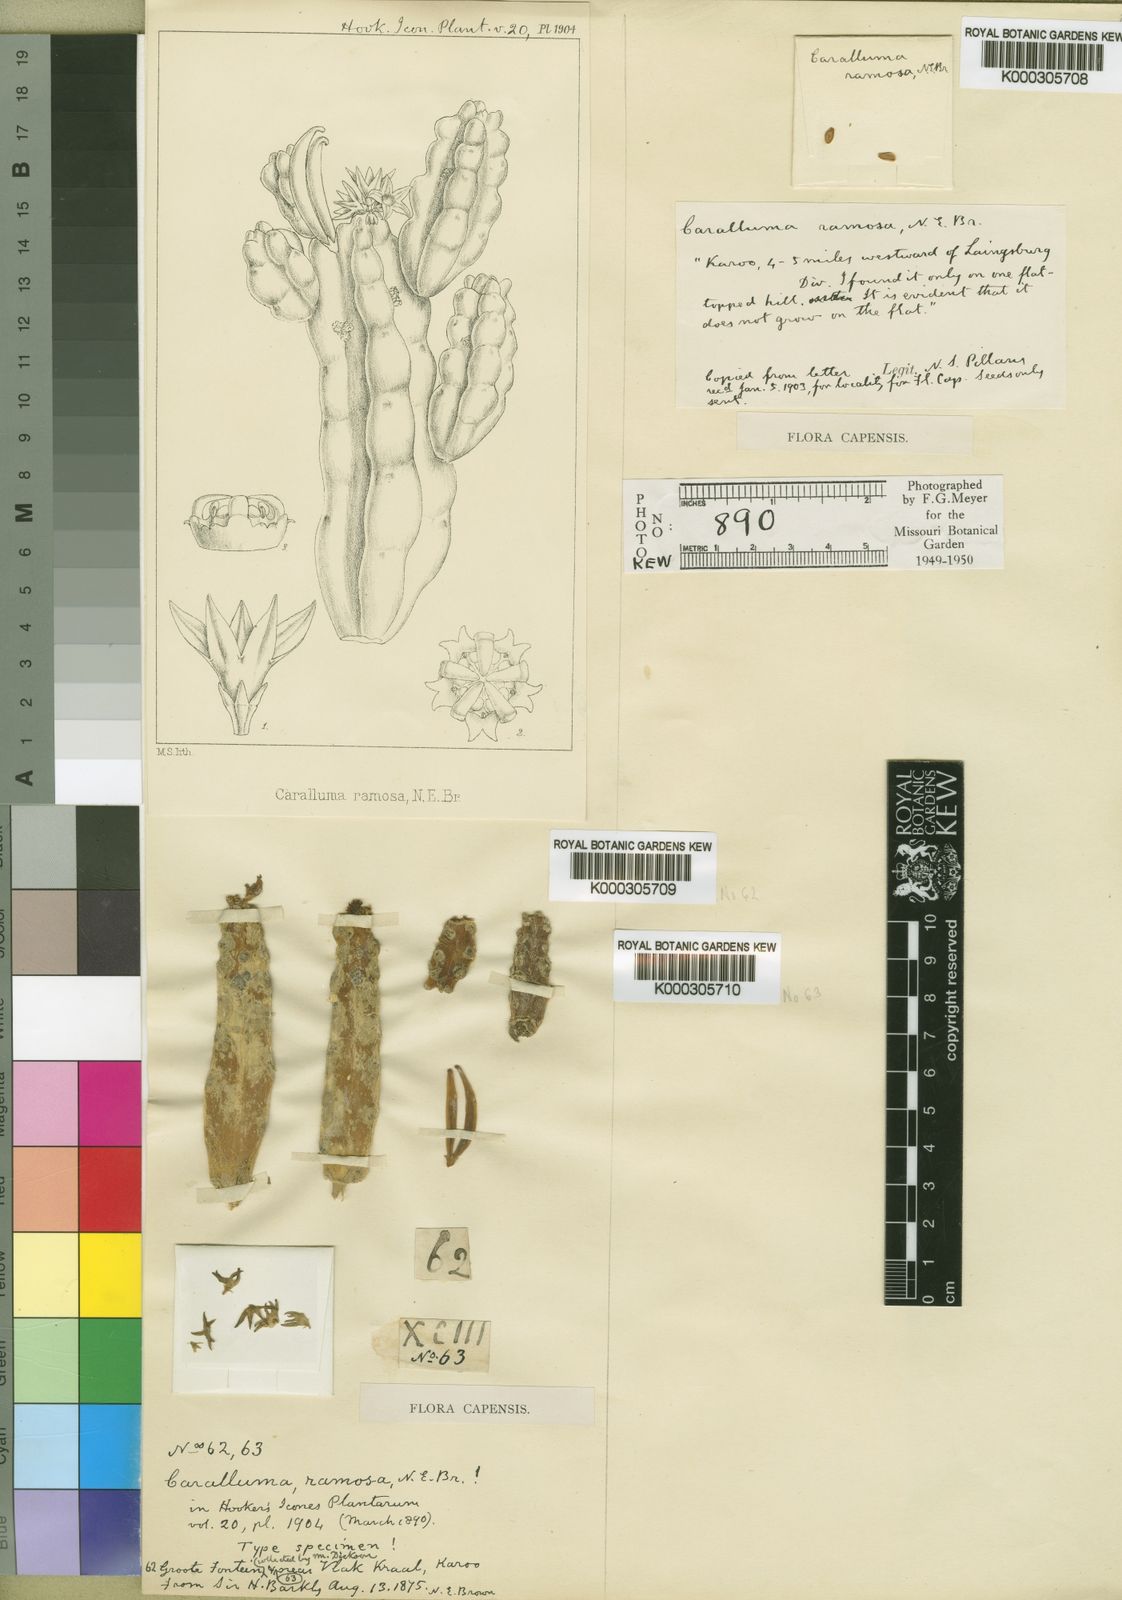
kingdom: Plantae
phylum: Tracheophyta
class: Magnoliopsida
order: Gentianales
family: Apocynaceae
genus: Ceropegia
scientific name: Ceropegia ramosa
